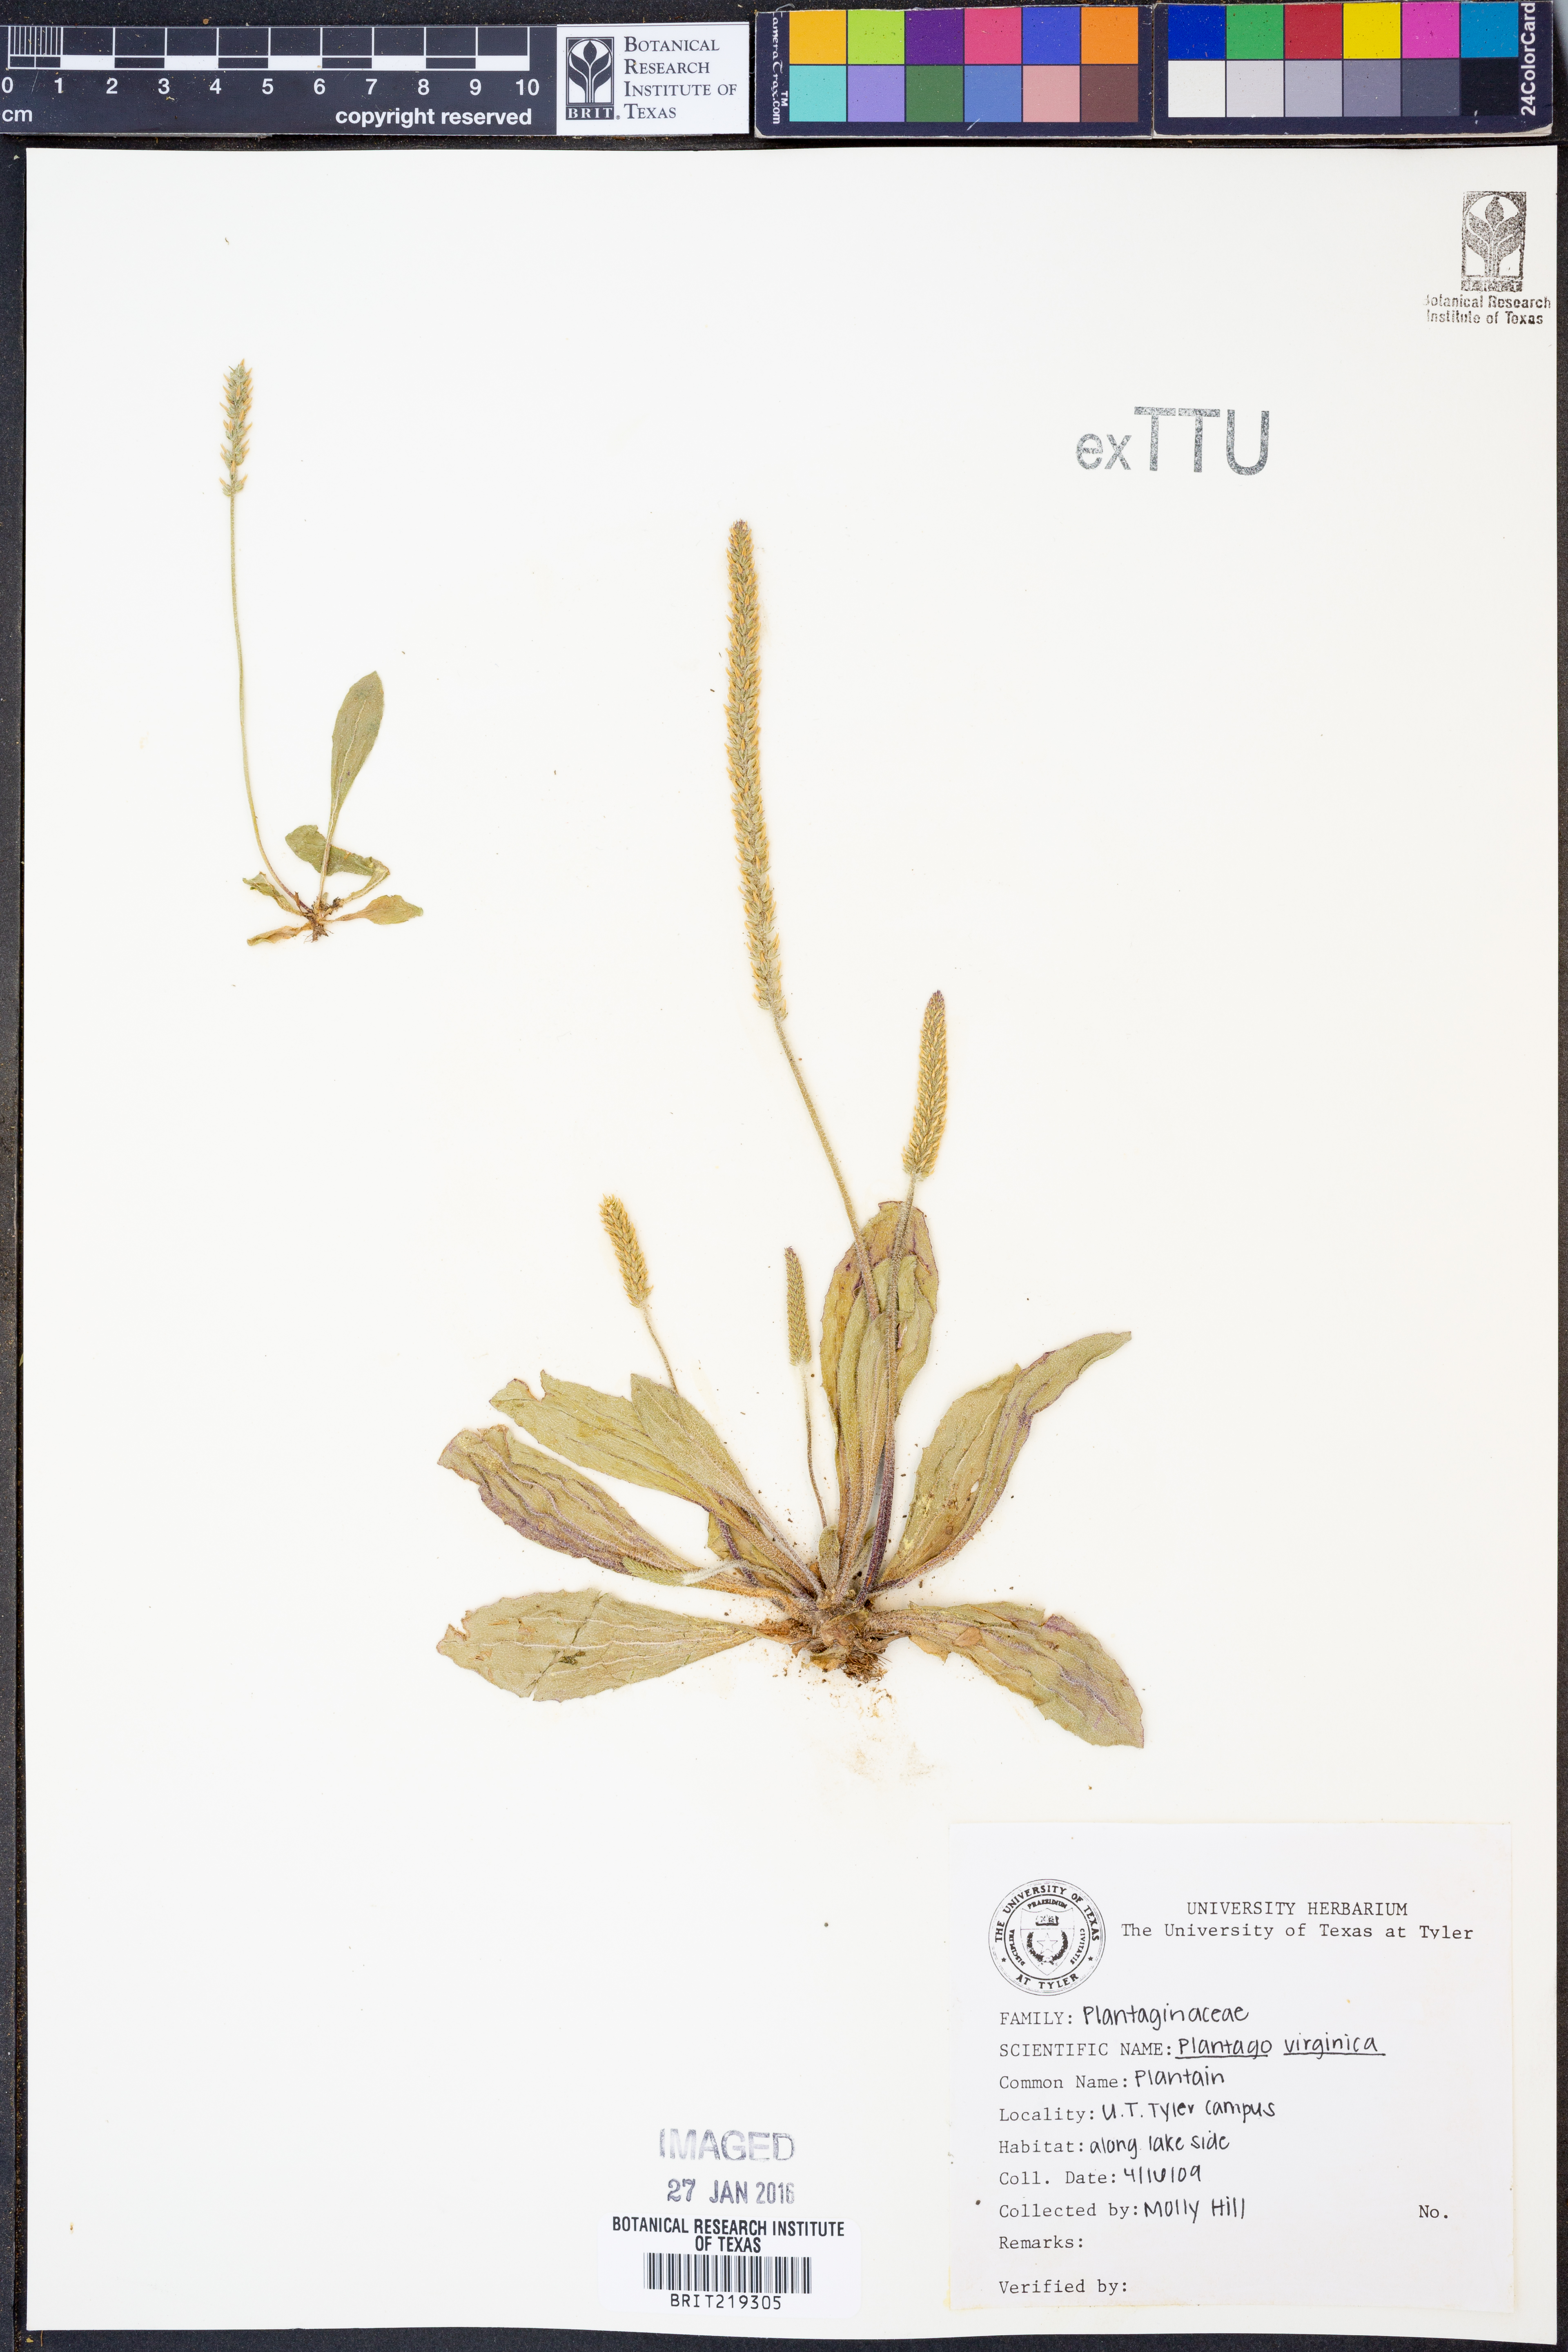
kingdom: Plantae
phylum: Tracheophyta
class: Magnoliopsida
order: Lamiales
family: Plantaginaceae
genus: Plantago
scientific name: Plantago virginica
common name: Hoary plantain
